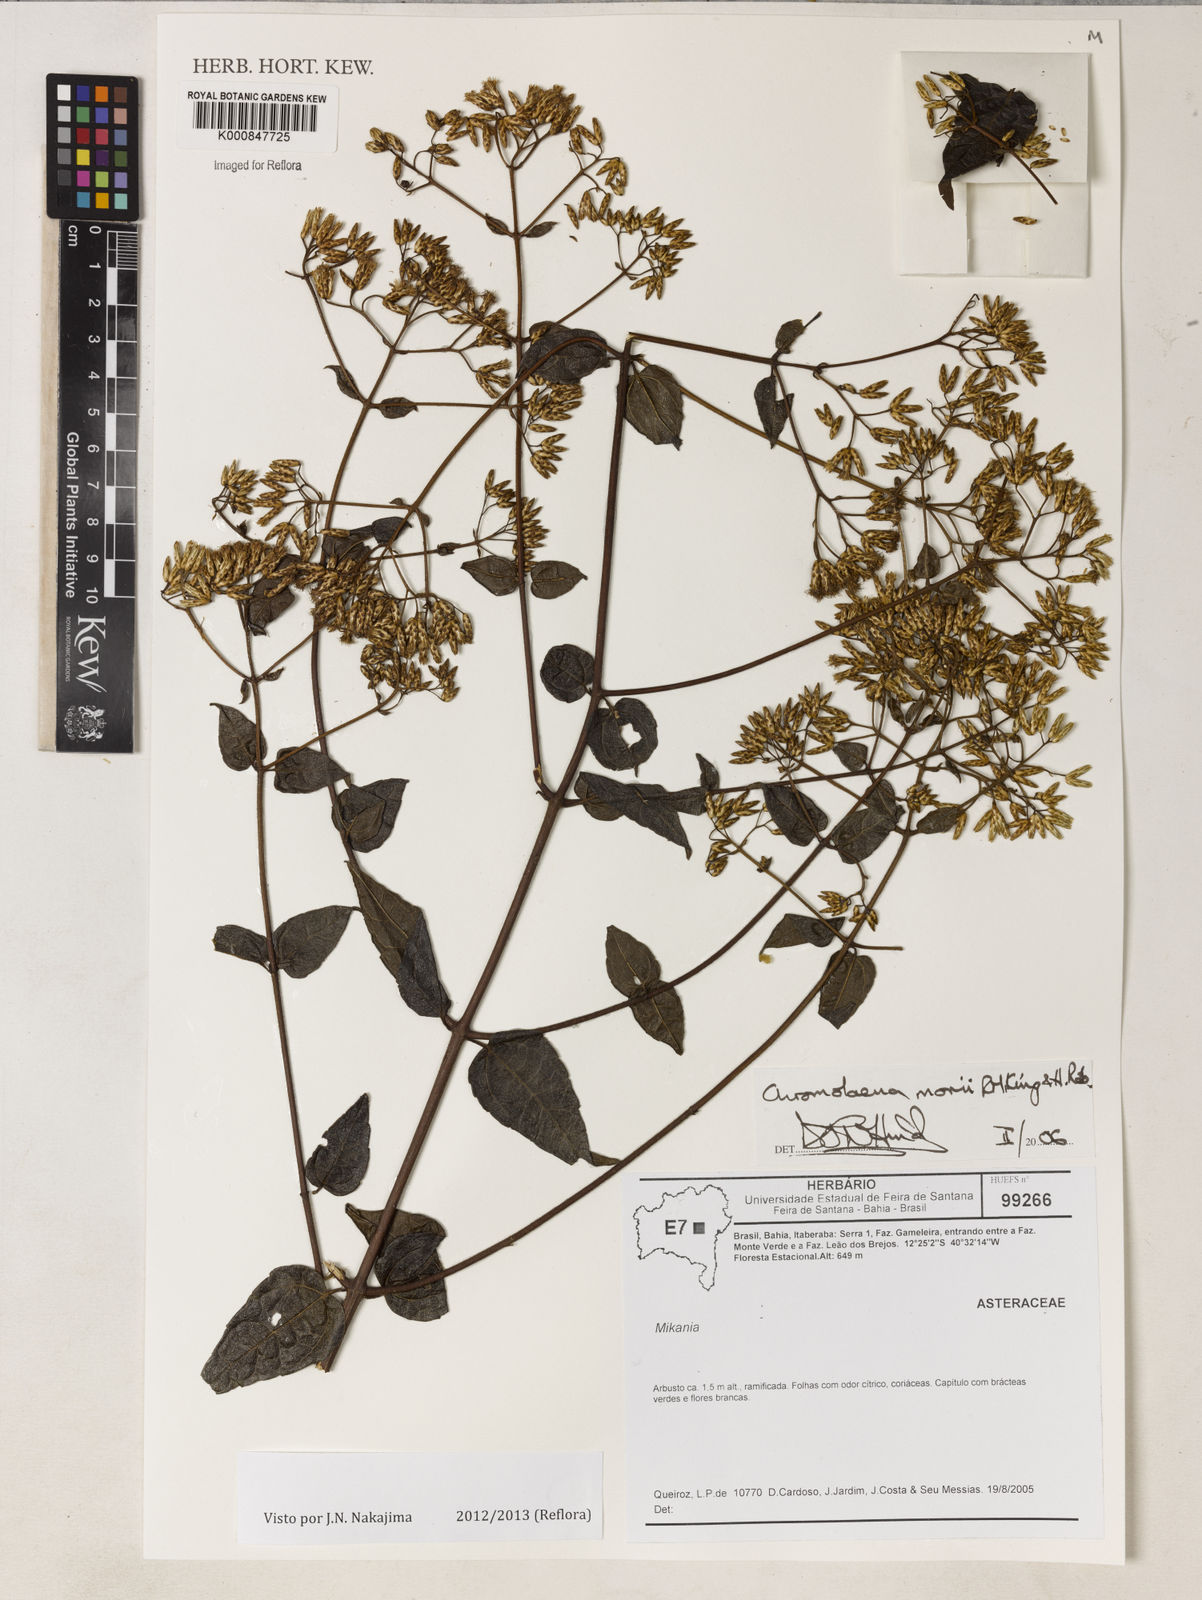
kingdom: Plantae
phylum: Tracheophyta
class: Magnoliopsida
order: Asterales
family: Asteraceae
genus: Chromolaena
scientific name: Chromolaena morii
